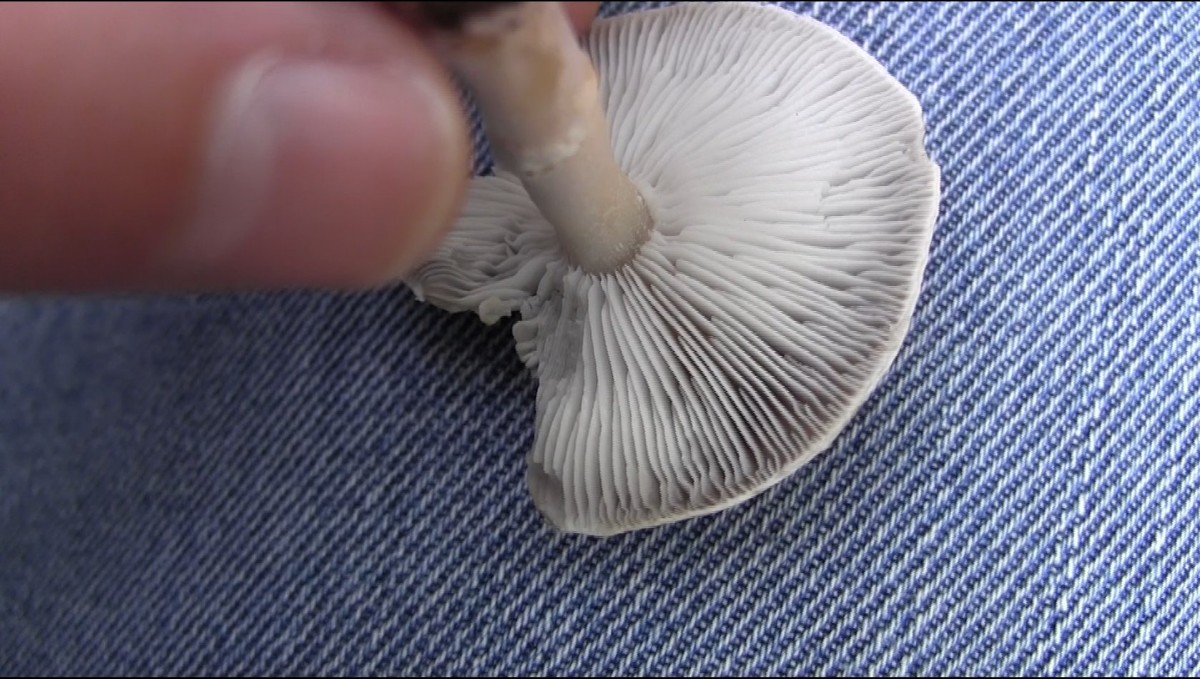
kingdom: Fungi
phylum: Basidiomycota
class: Agaricomycetes
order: Agaricales
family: Tricholomataceae
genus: Tricholoma
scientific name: Tricholoma cingulatum
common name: ring-ridderhat
